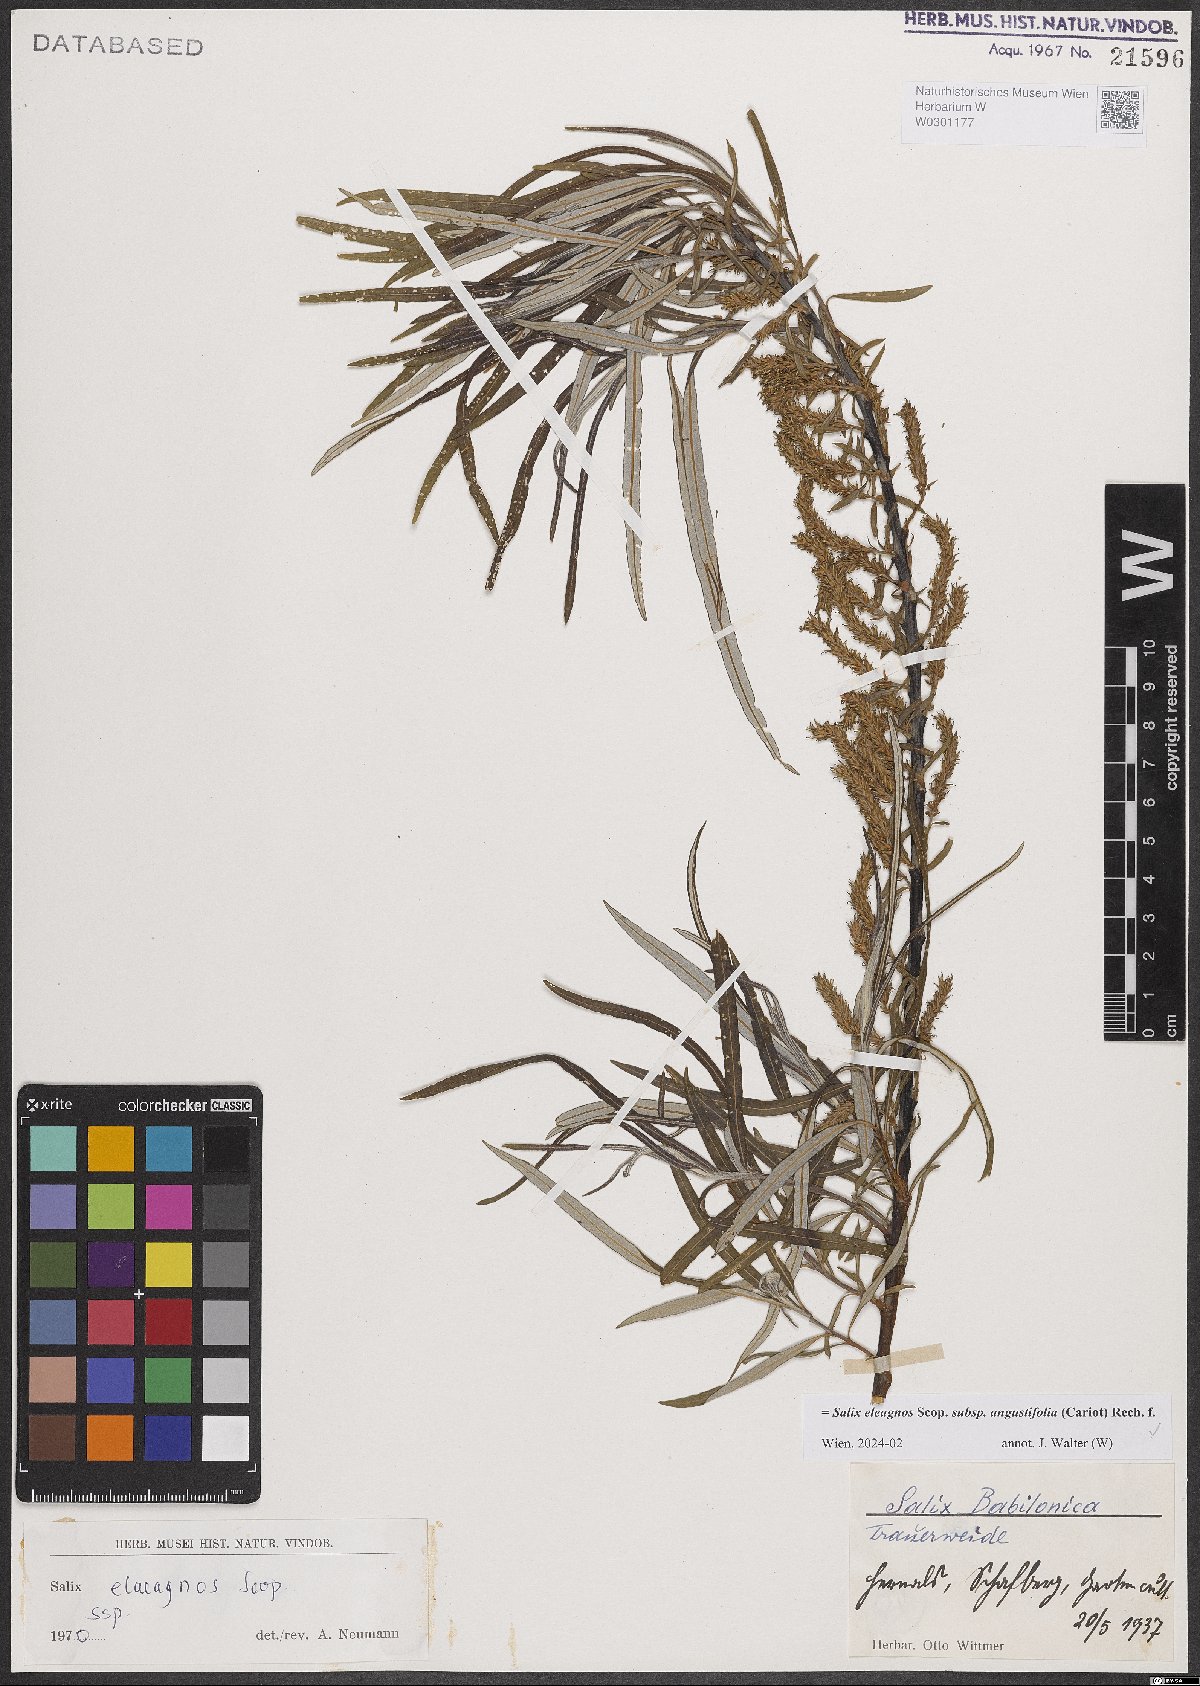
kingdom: Plantae
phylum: Tracheophyta
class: Magnoliopsida
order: Malpighiales
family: Salicaceae
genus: Salix
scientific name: Salix eleagnos
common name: Elaeagnus willow
